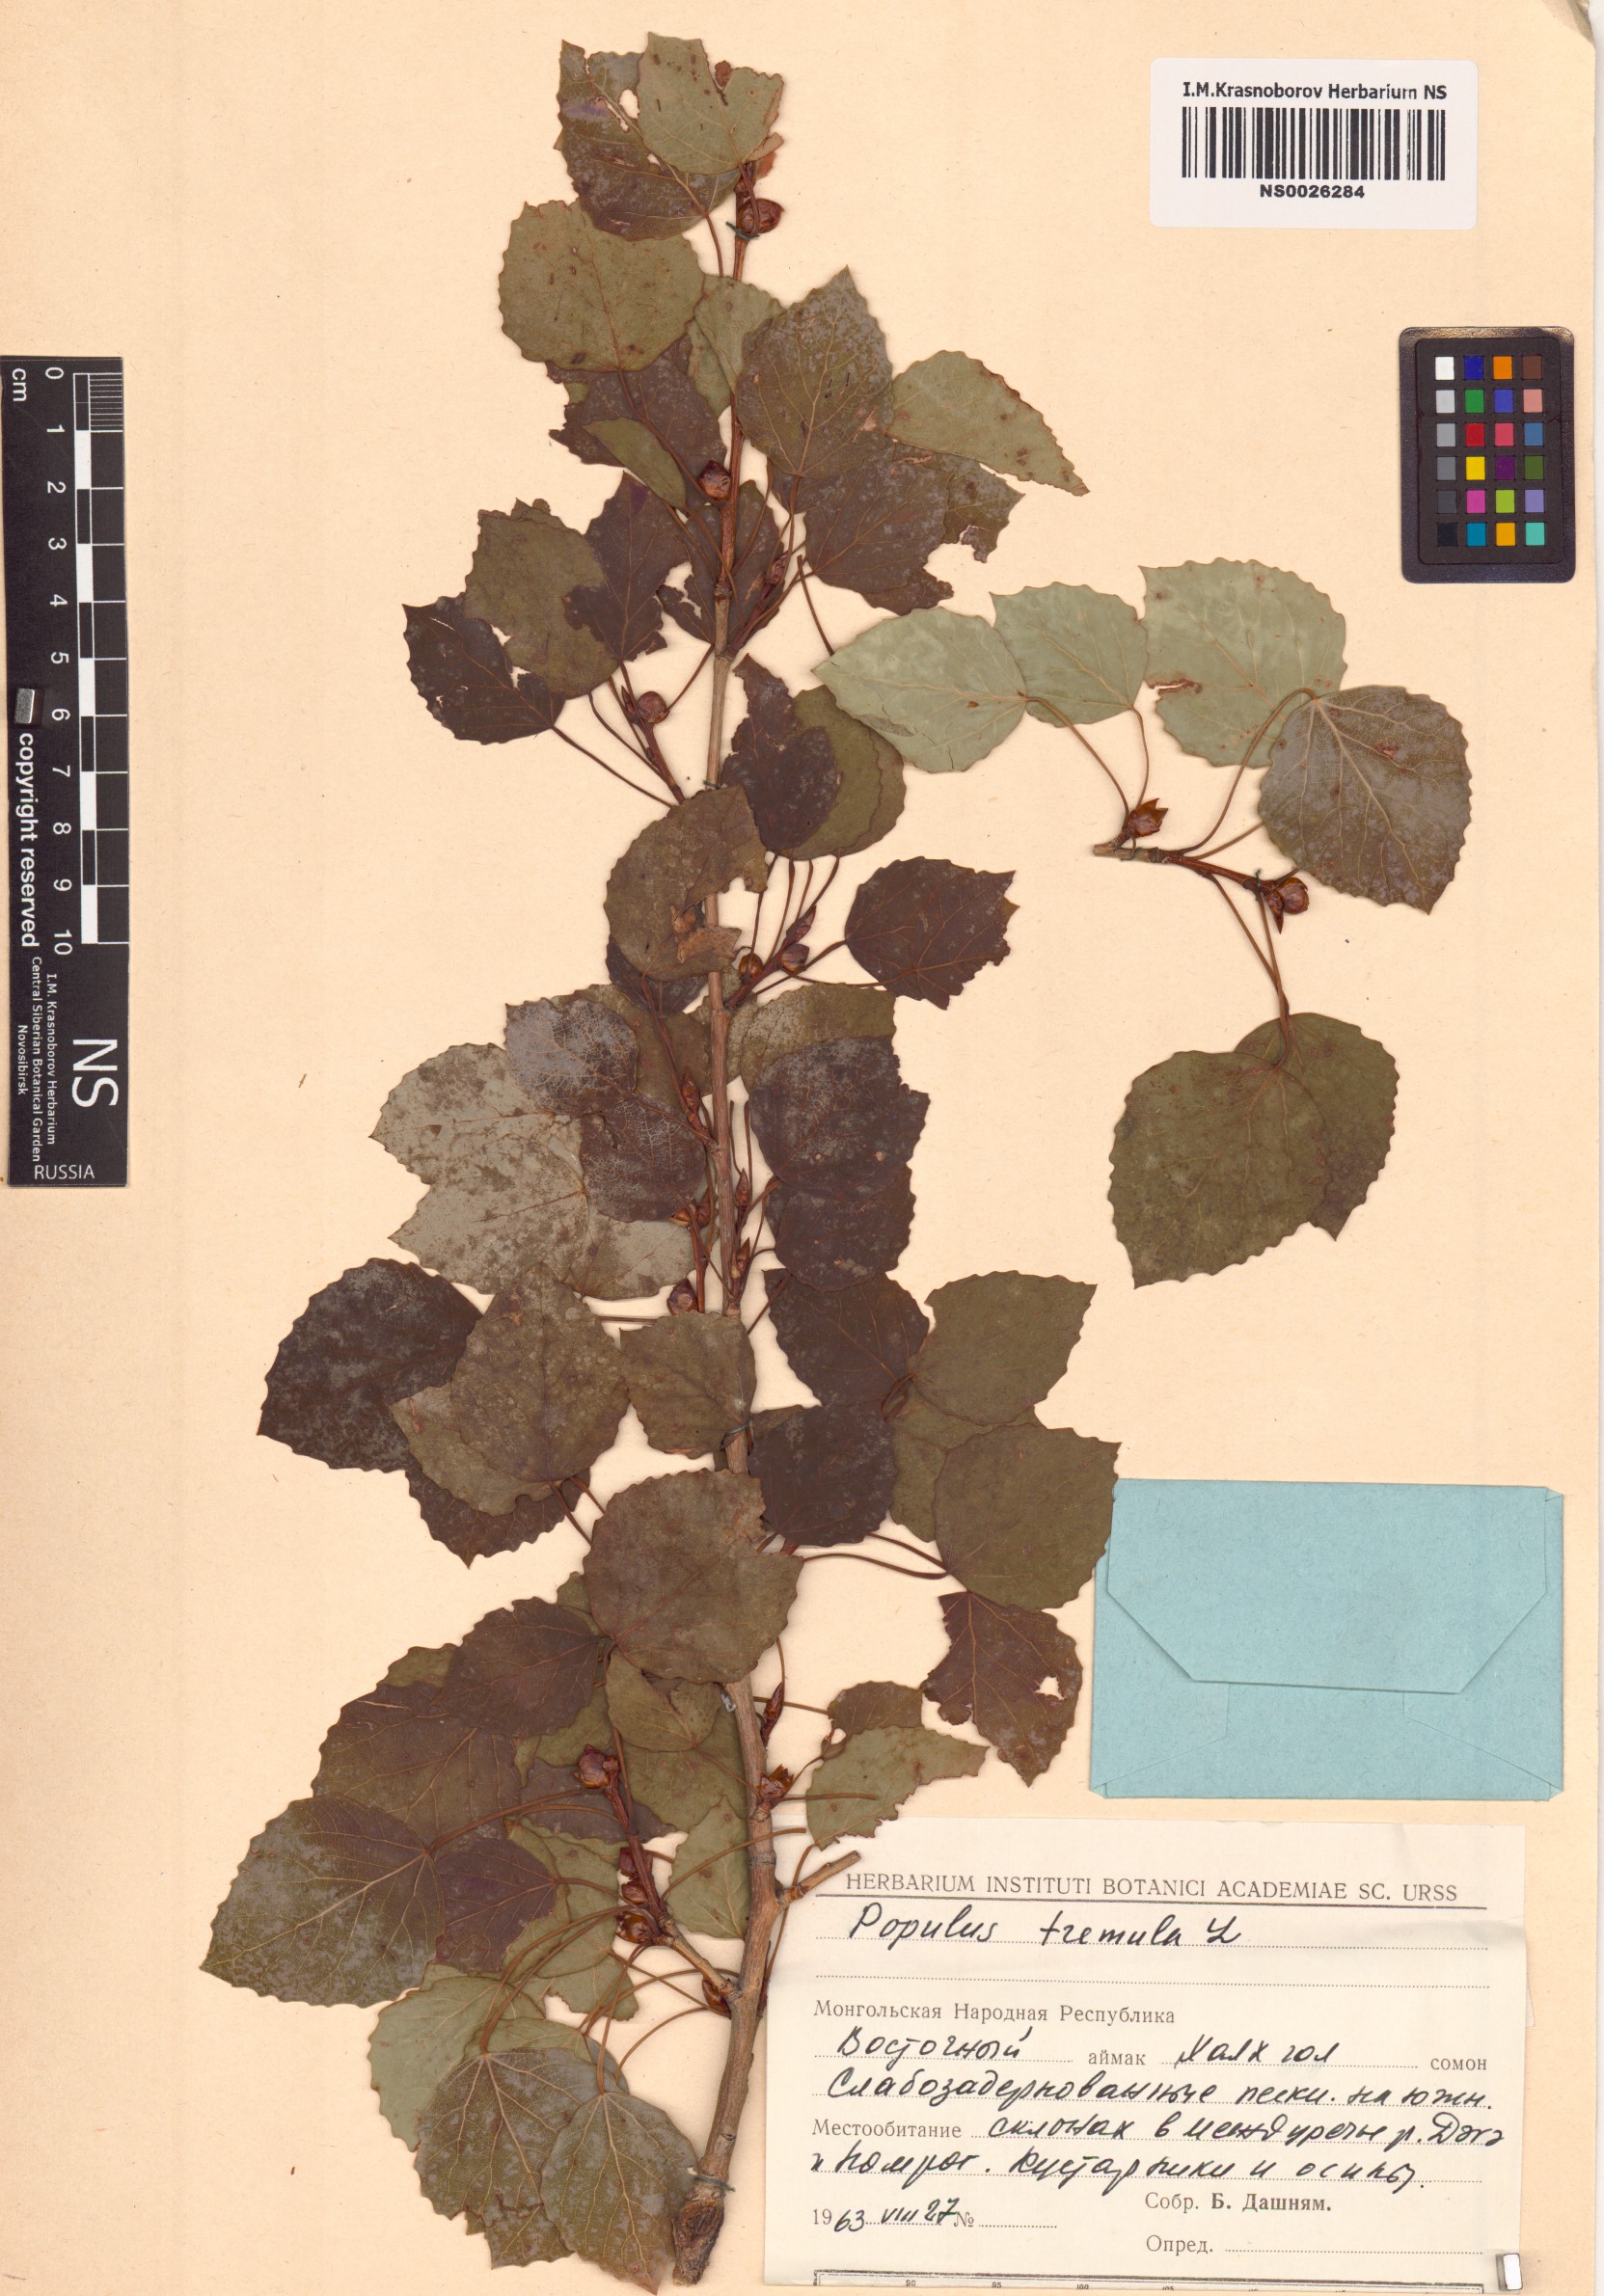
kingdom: Plantae
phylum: Tracheophyta
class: Magnoliopsida
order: Malpighiales
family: Salicaceae
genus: Populus
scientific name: Populus tremula
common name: European aspen
